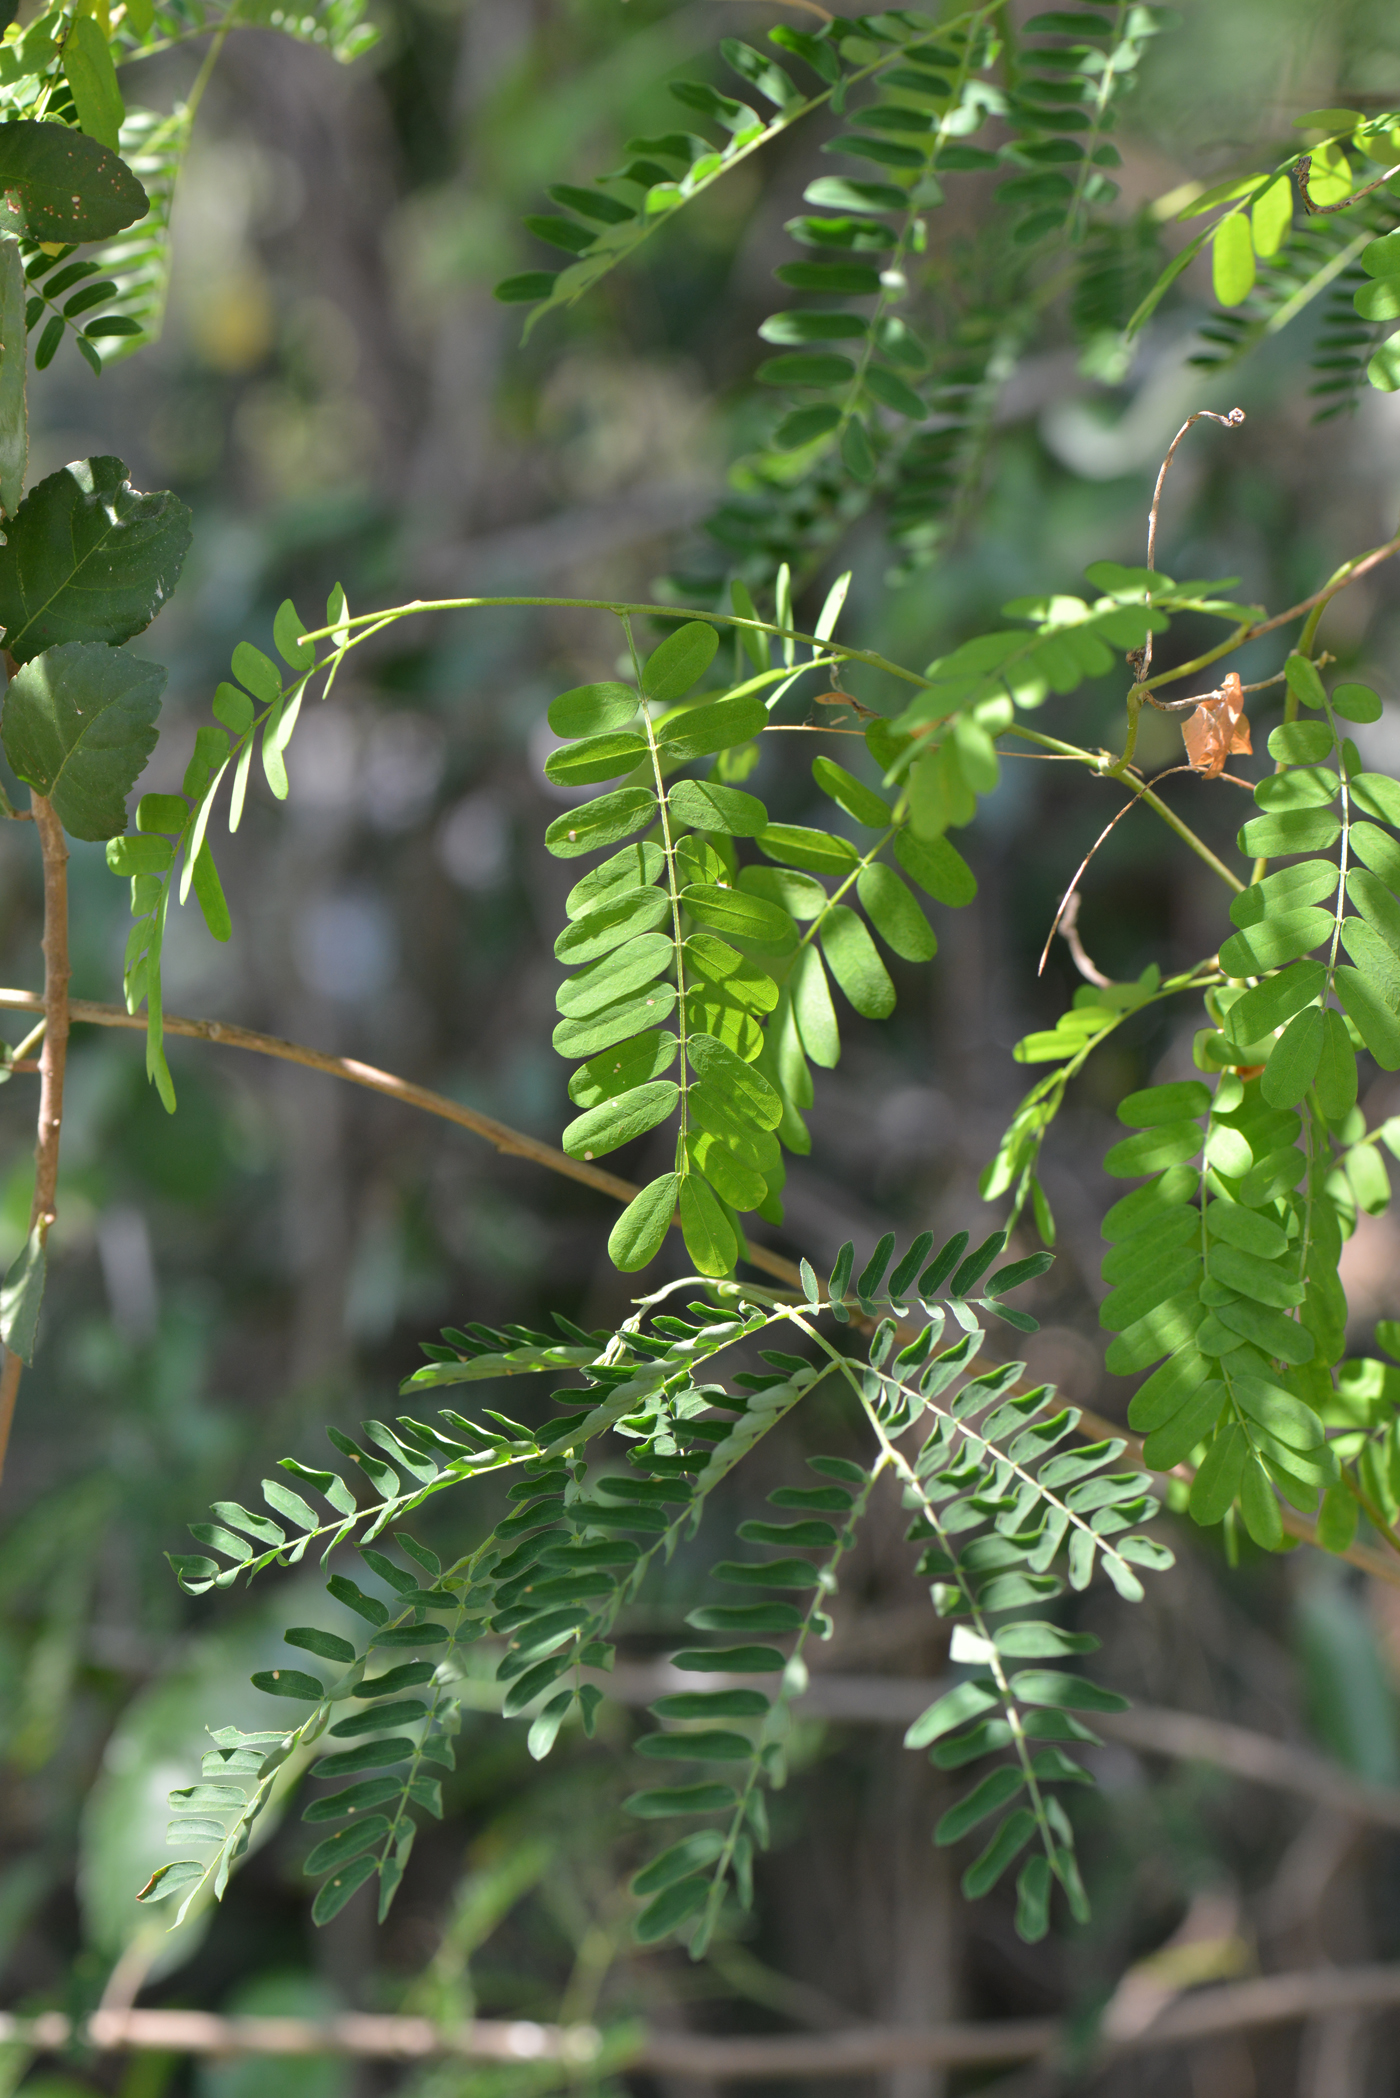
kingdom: Plantae
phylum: Tracheophyta
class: Magnoliopsida
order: Fabales
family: Fabaceae
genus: Abrus
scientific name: Abrus precatorius
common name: Rosarypea
